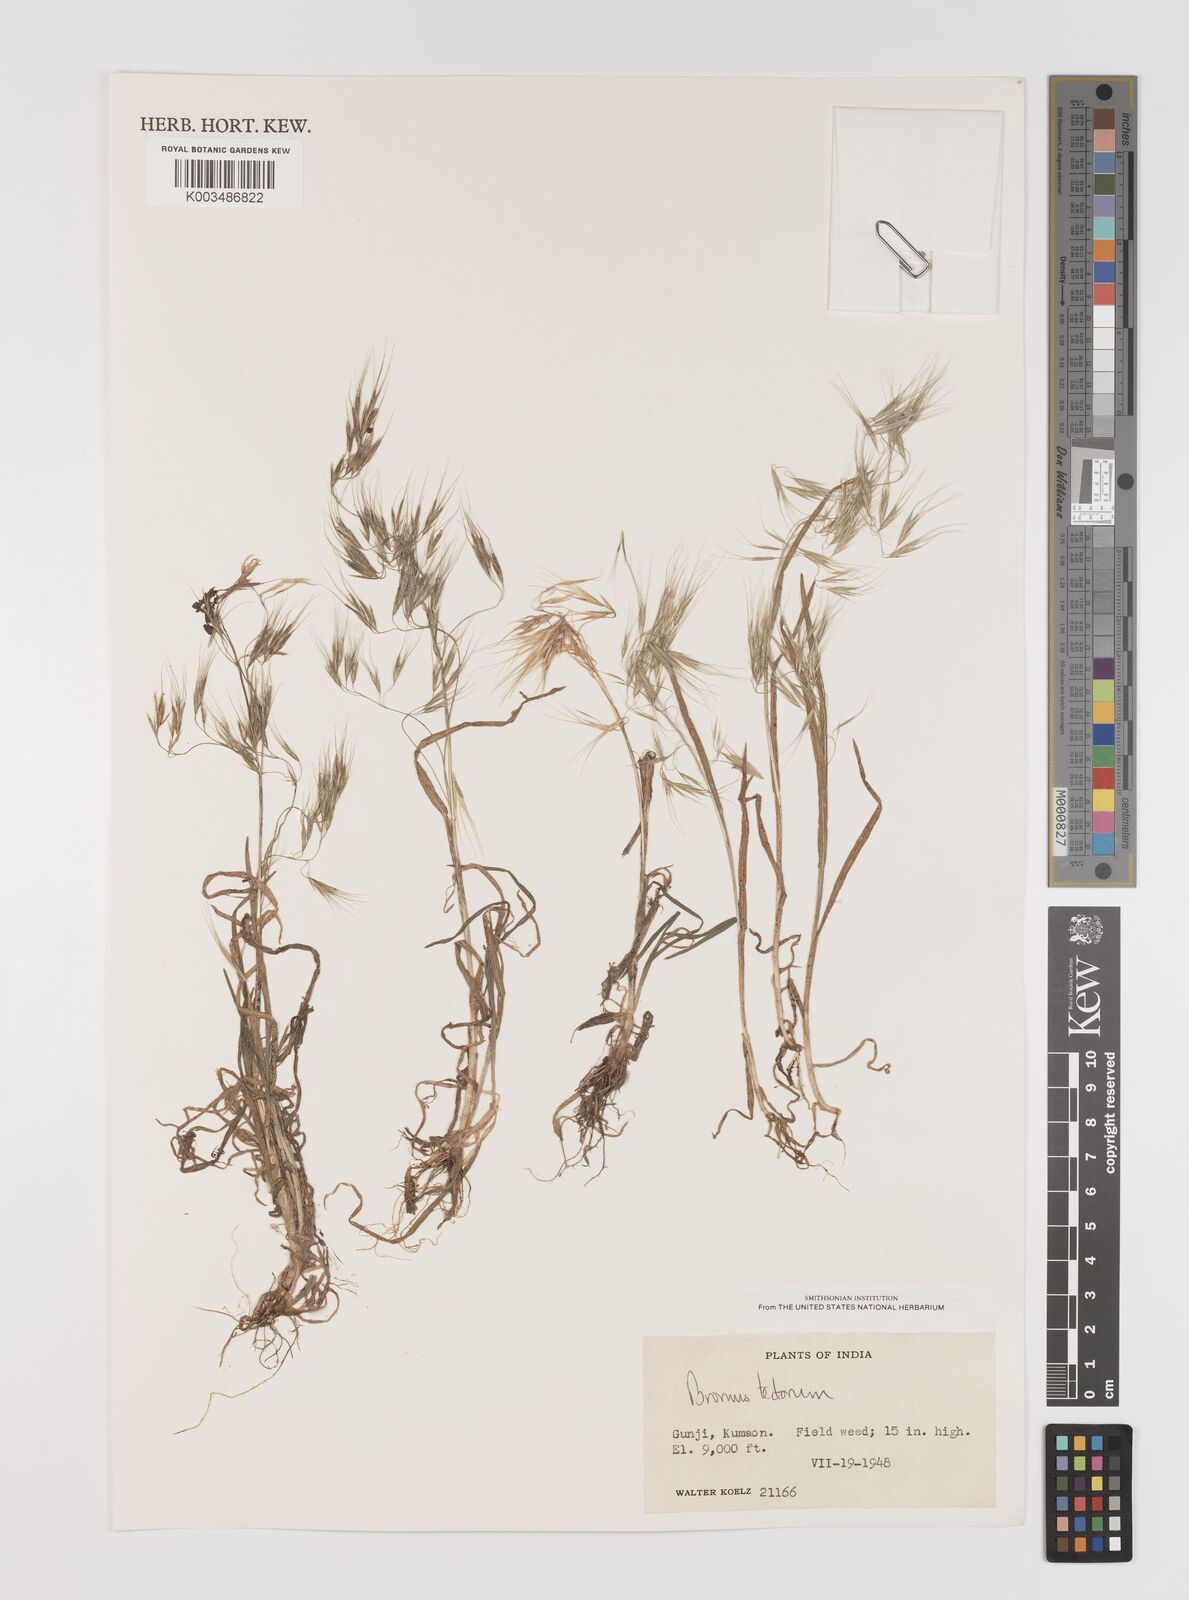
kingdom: Plantae
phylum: Tracheophyta
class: Liliopsida
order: Poales
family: Poaceae
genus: Bromus
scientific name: Bromus tectorum
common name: Cheatgrass
